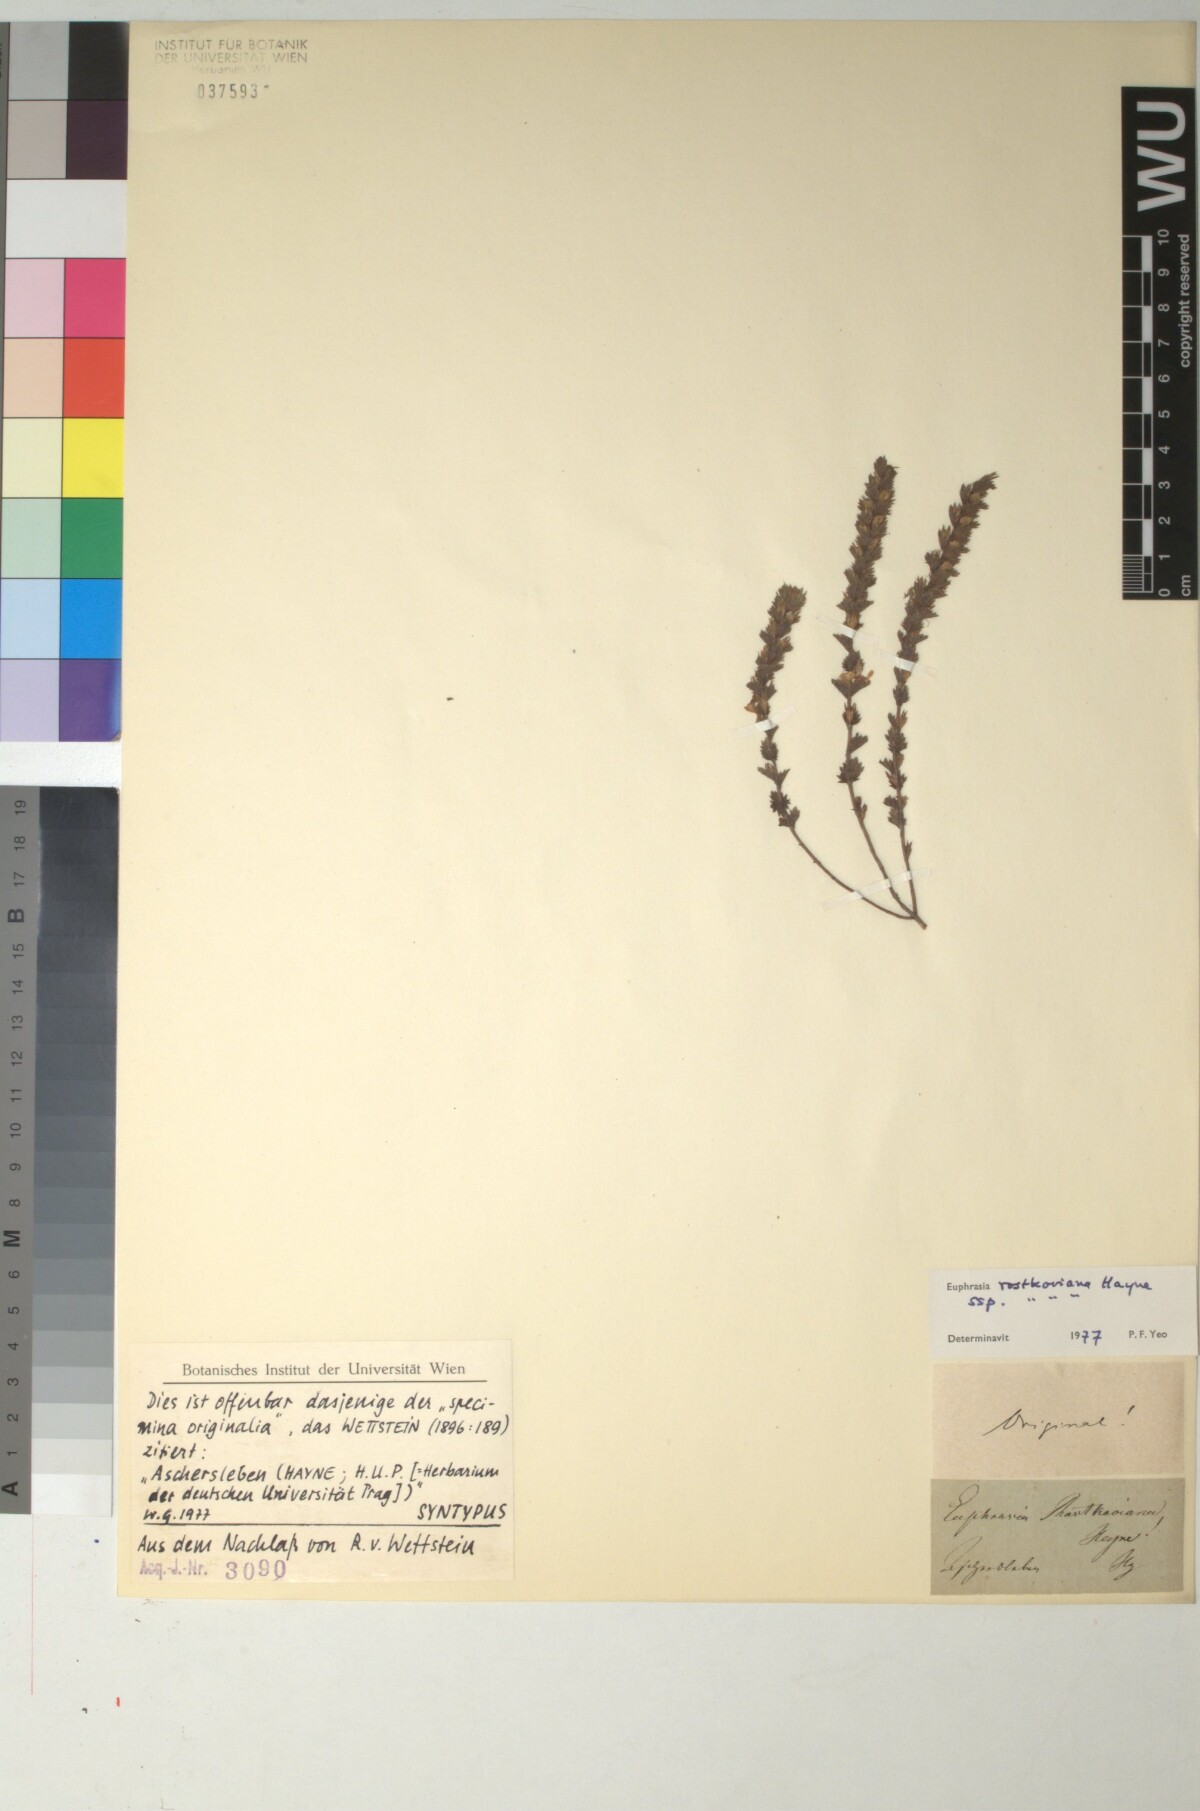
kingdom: Plantae
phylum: Tracheophyta
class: Magnoliopsida
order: Lamiales
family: Orobanchaceae
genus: Euphrasia
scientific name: Euphrasia officinalis
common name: Eyebright
